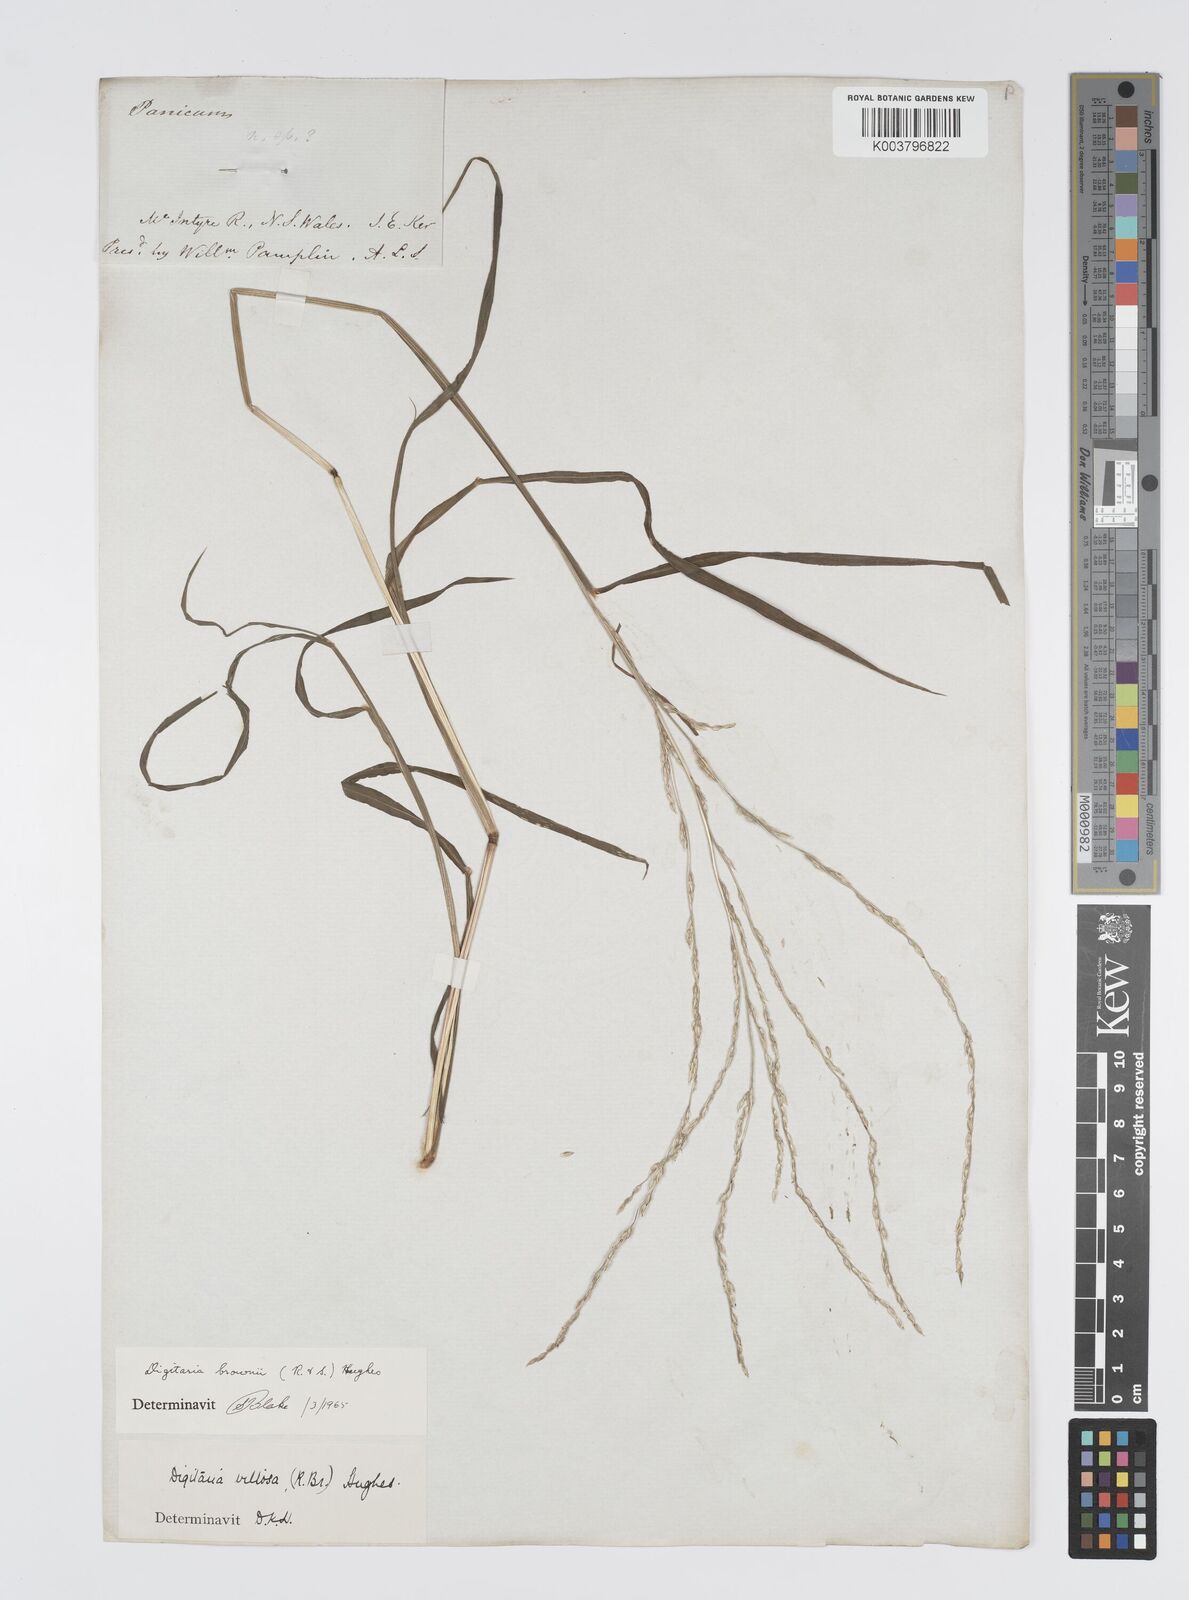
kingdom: Plantae
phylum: Tracheophyta
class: Liliopsida
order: Poales
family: Poaceae
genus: Digitaria
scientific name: Digitaria brownii
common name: Cotton grass
